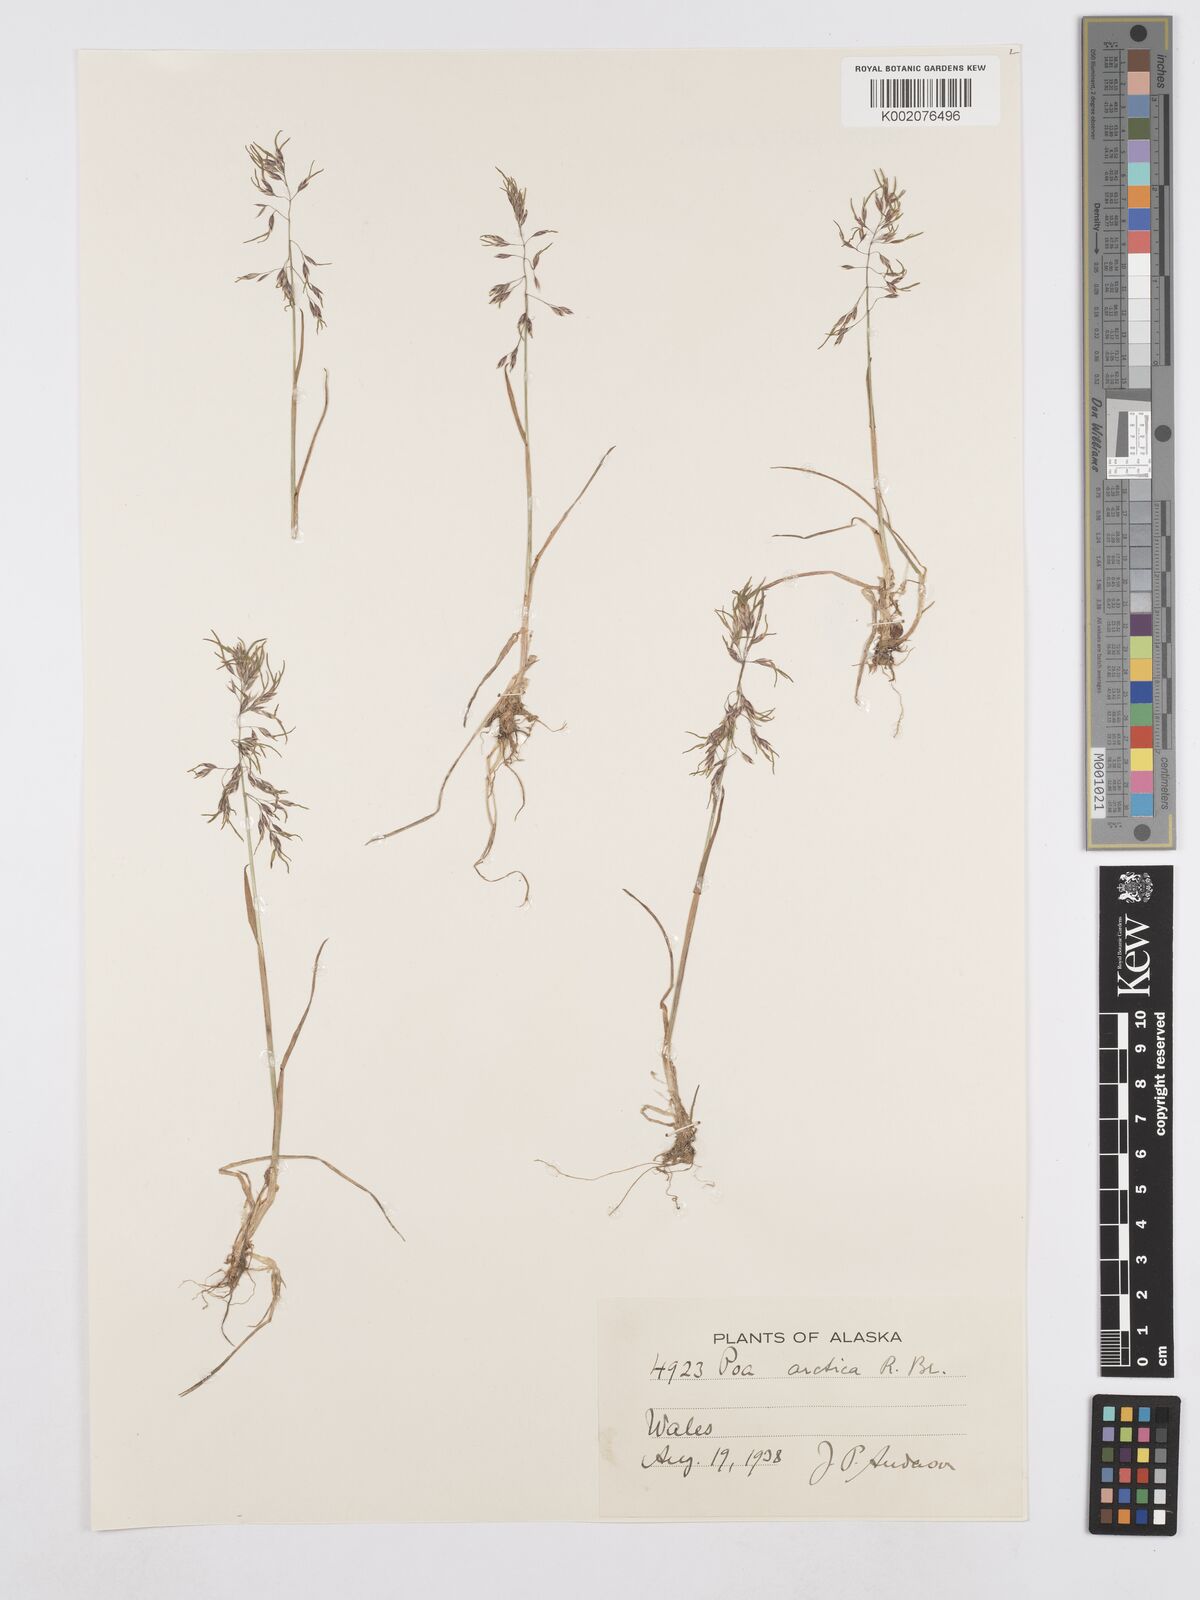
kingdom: Plantae
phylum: Tracheophyta
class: Liliopsida
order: Poales
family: Poaceae
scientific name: Poaceae
